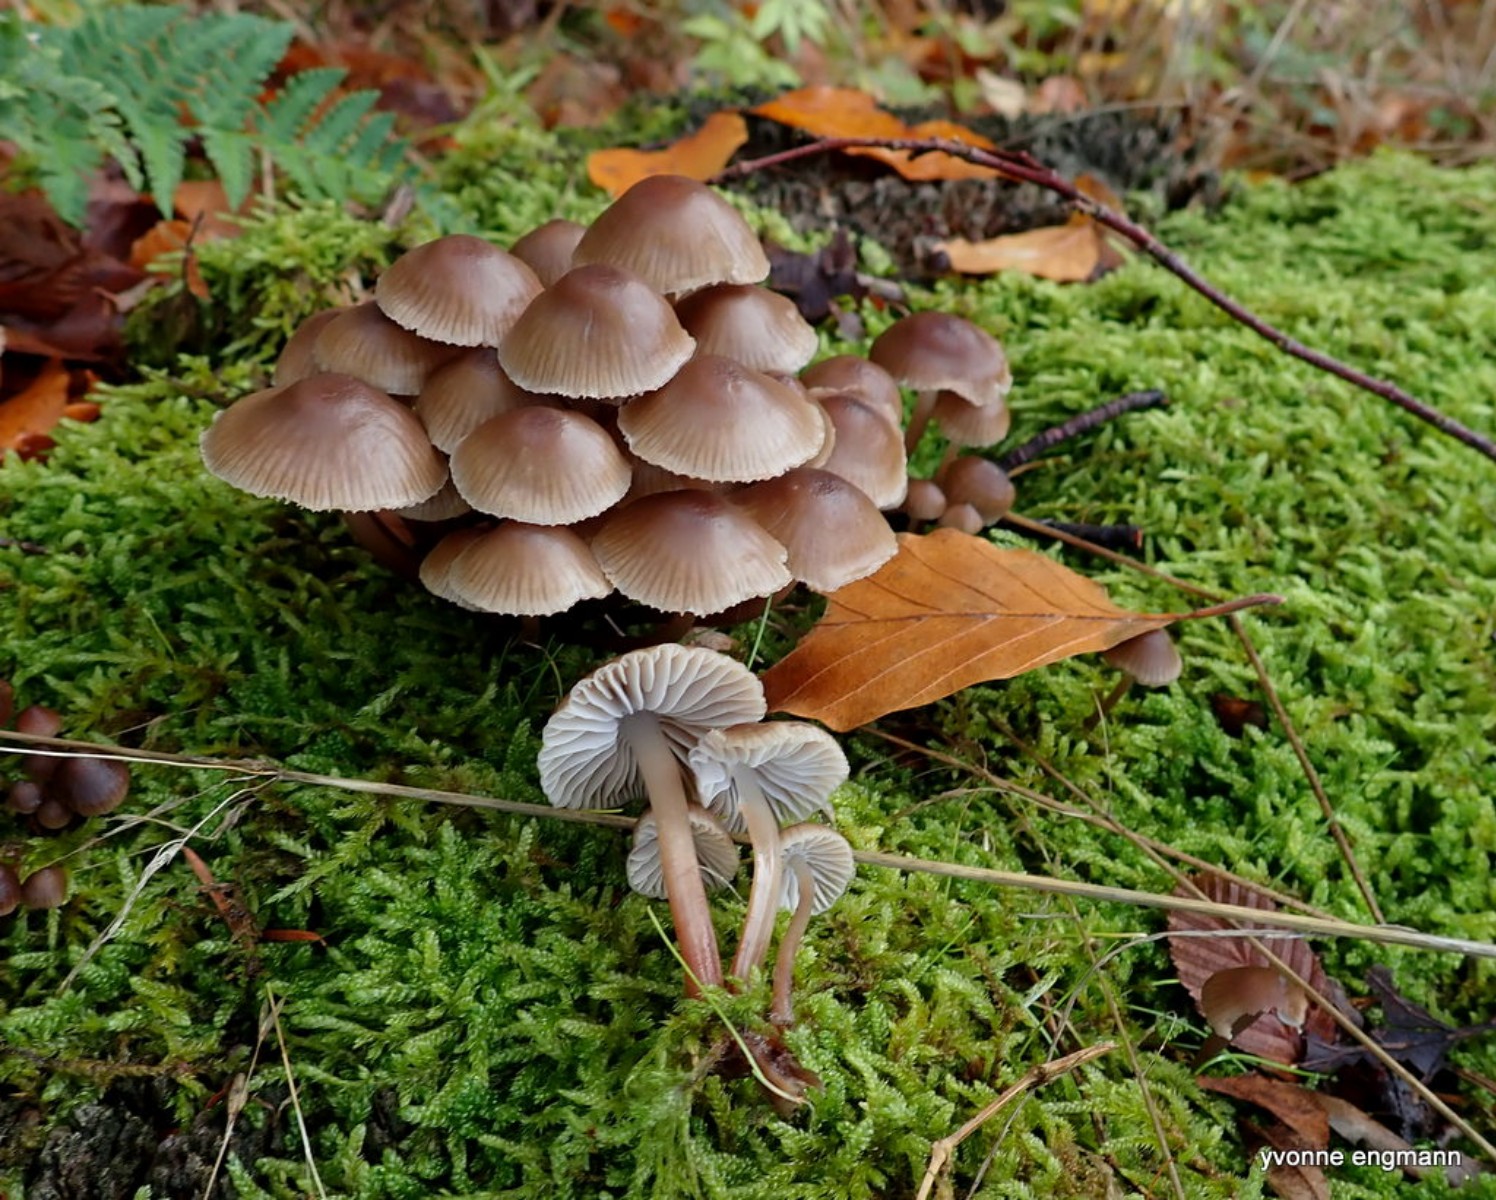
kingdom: Fungi
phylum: Basidiomycota
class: Agaricomycetes
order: Agaricales
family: Mycenaceae
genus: Mycena
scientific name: Mycena
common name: huesvamp
